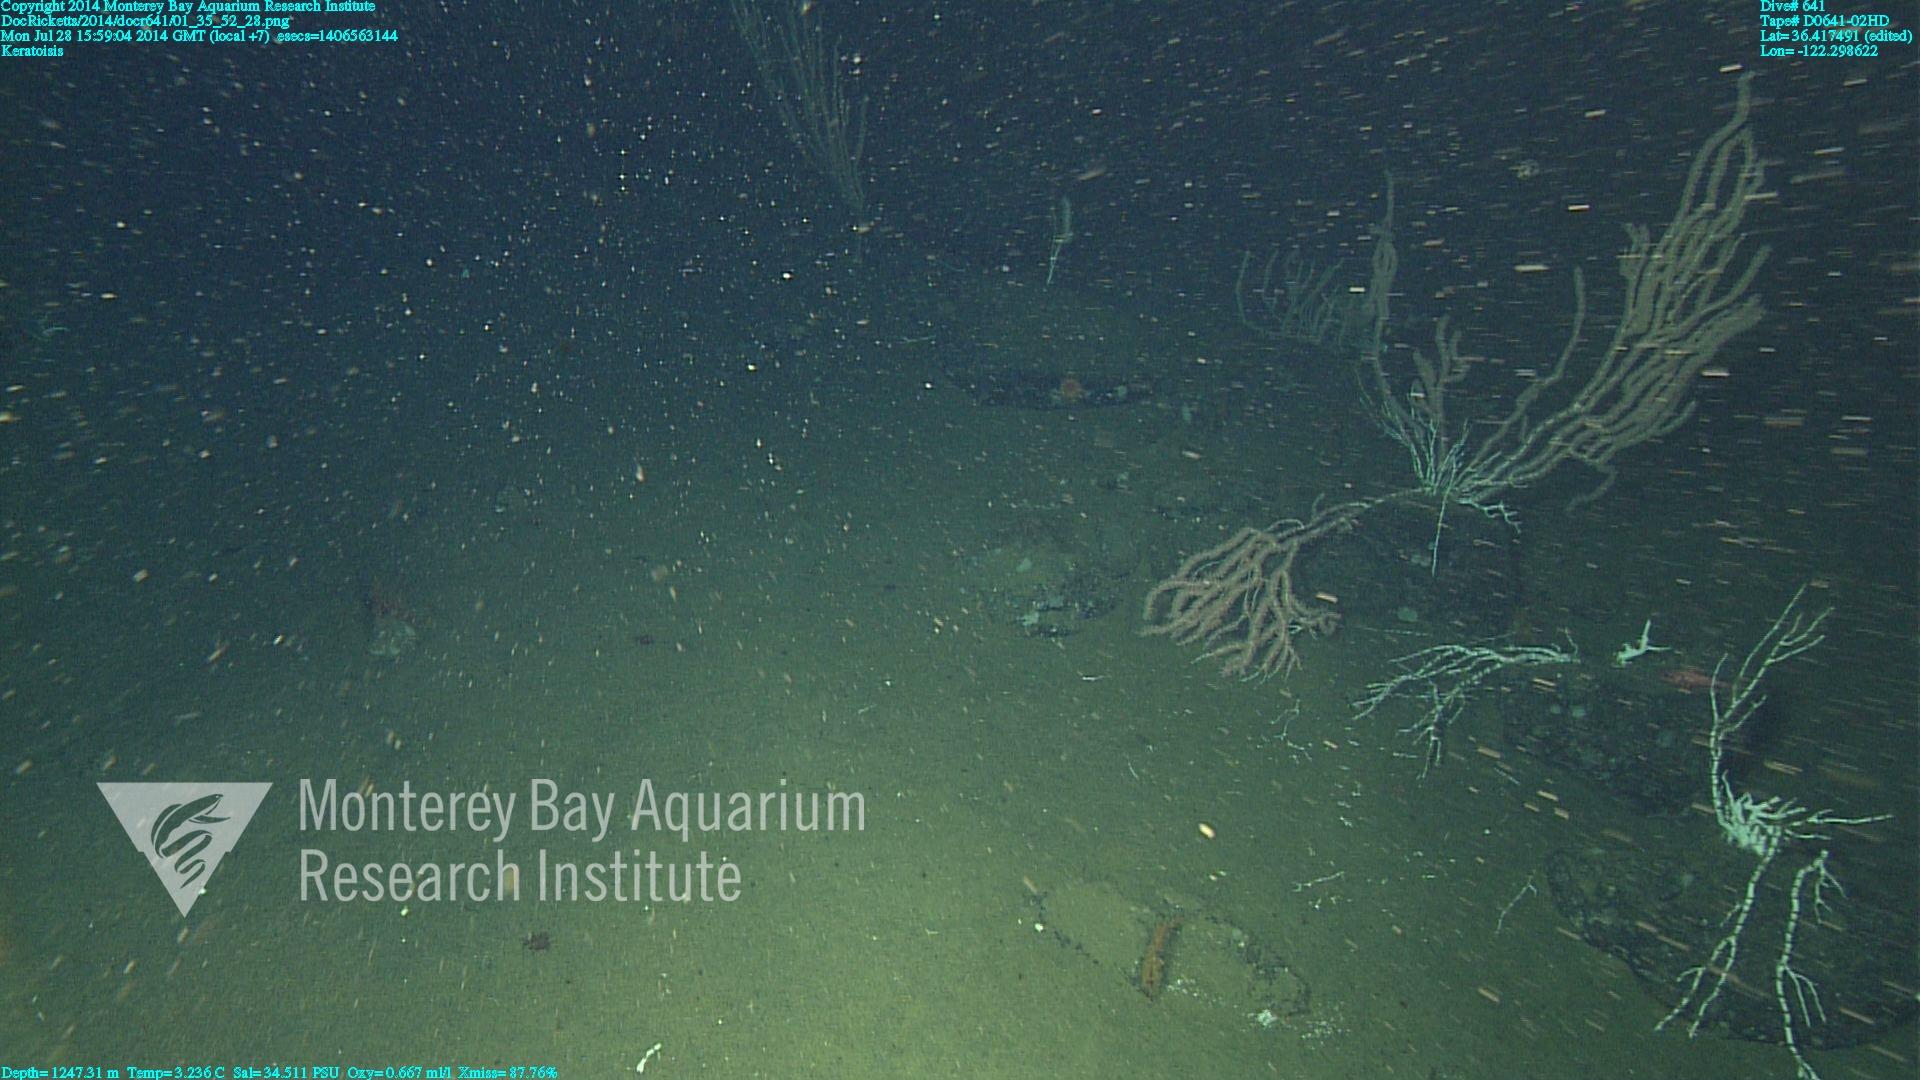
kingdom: Animalia
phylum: Cnidaria
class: Anthozoa
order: Scleralcyonacea
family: Keratoisididae
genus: Keratoisis
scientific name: Keratoisis
